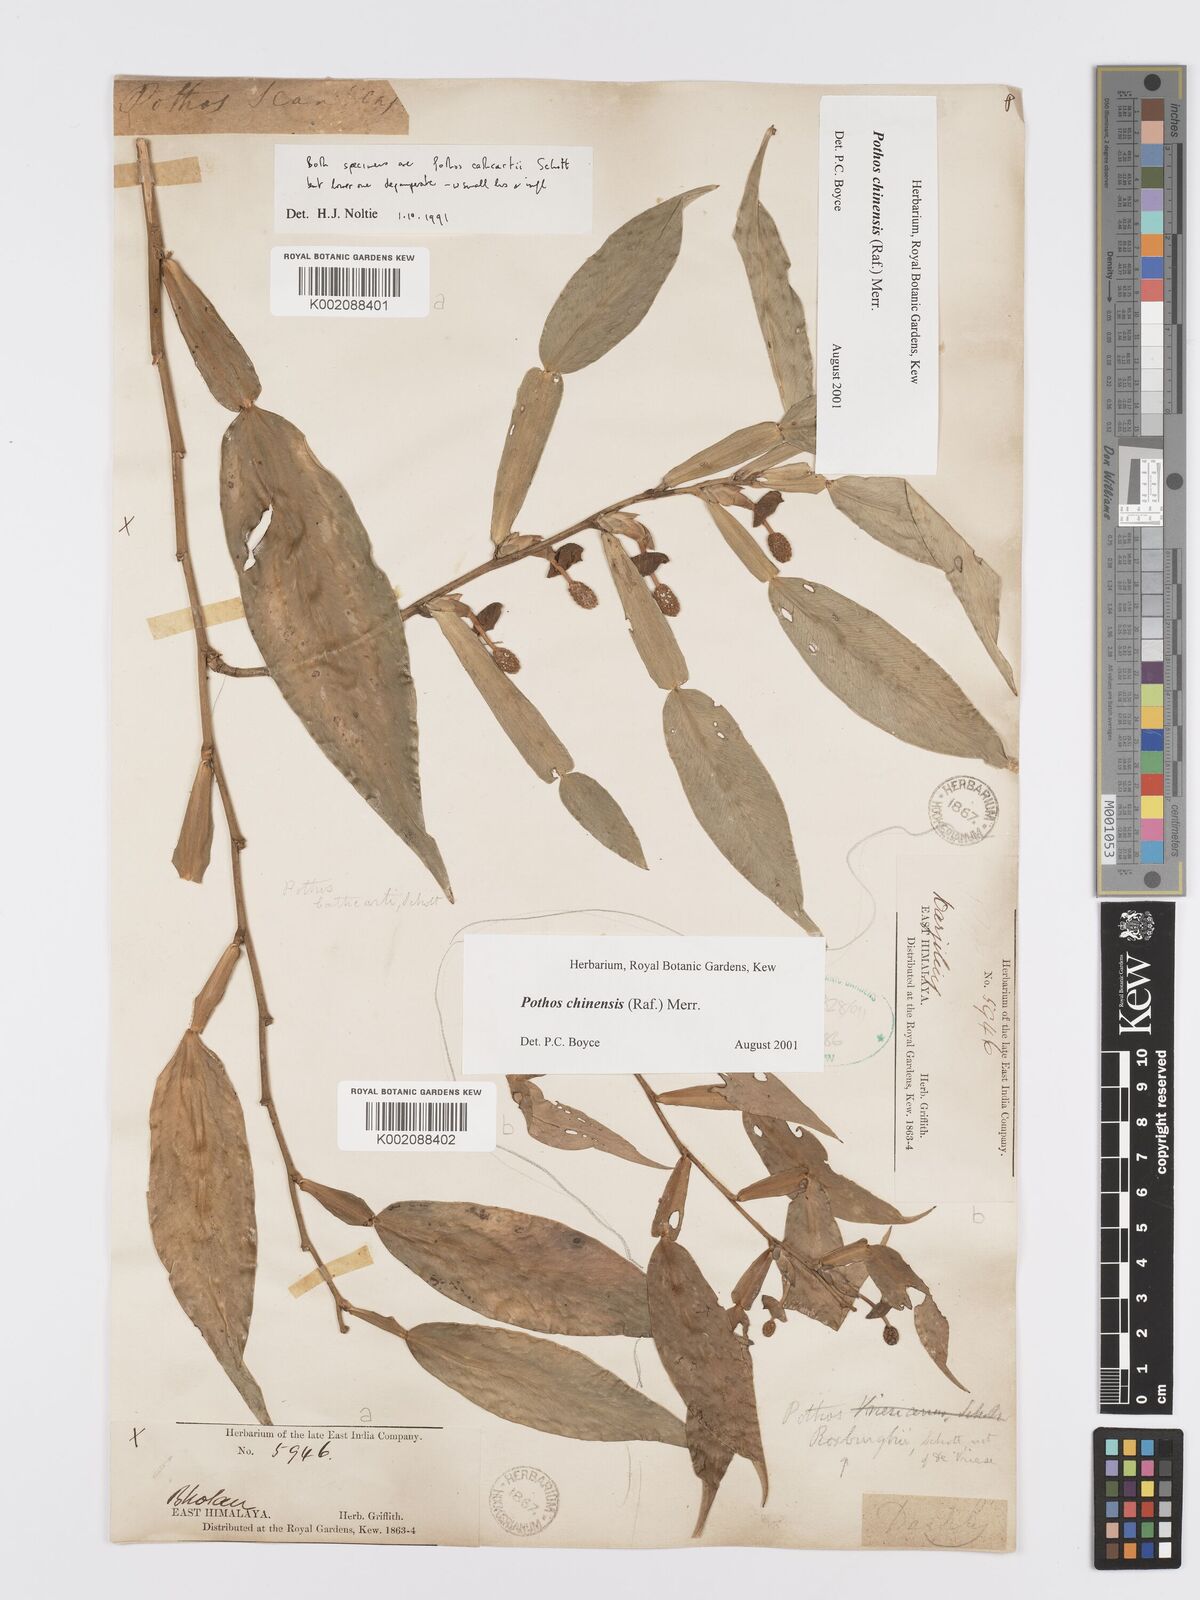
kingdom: Plantae
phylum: Tracheophyta
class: Liliopsida
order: Alismatales
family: Araceae
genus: Pothos
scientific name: Pothos chinensis
